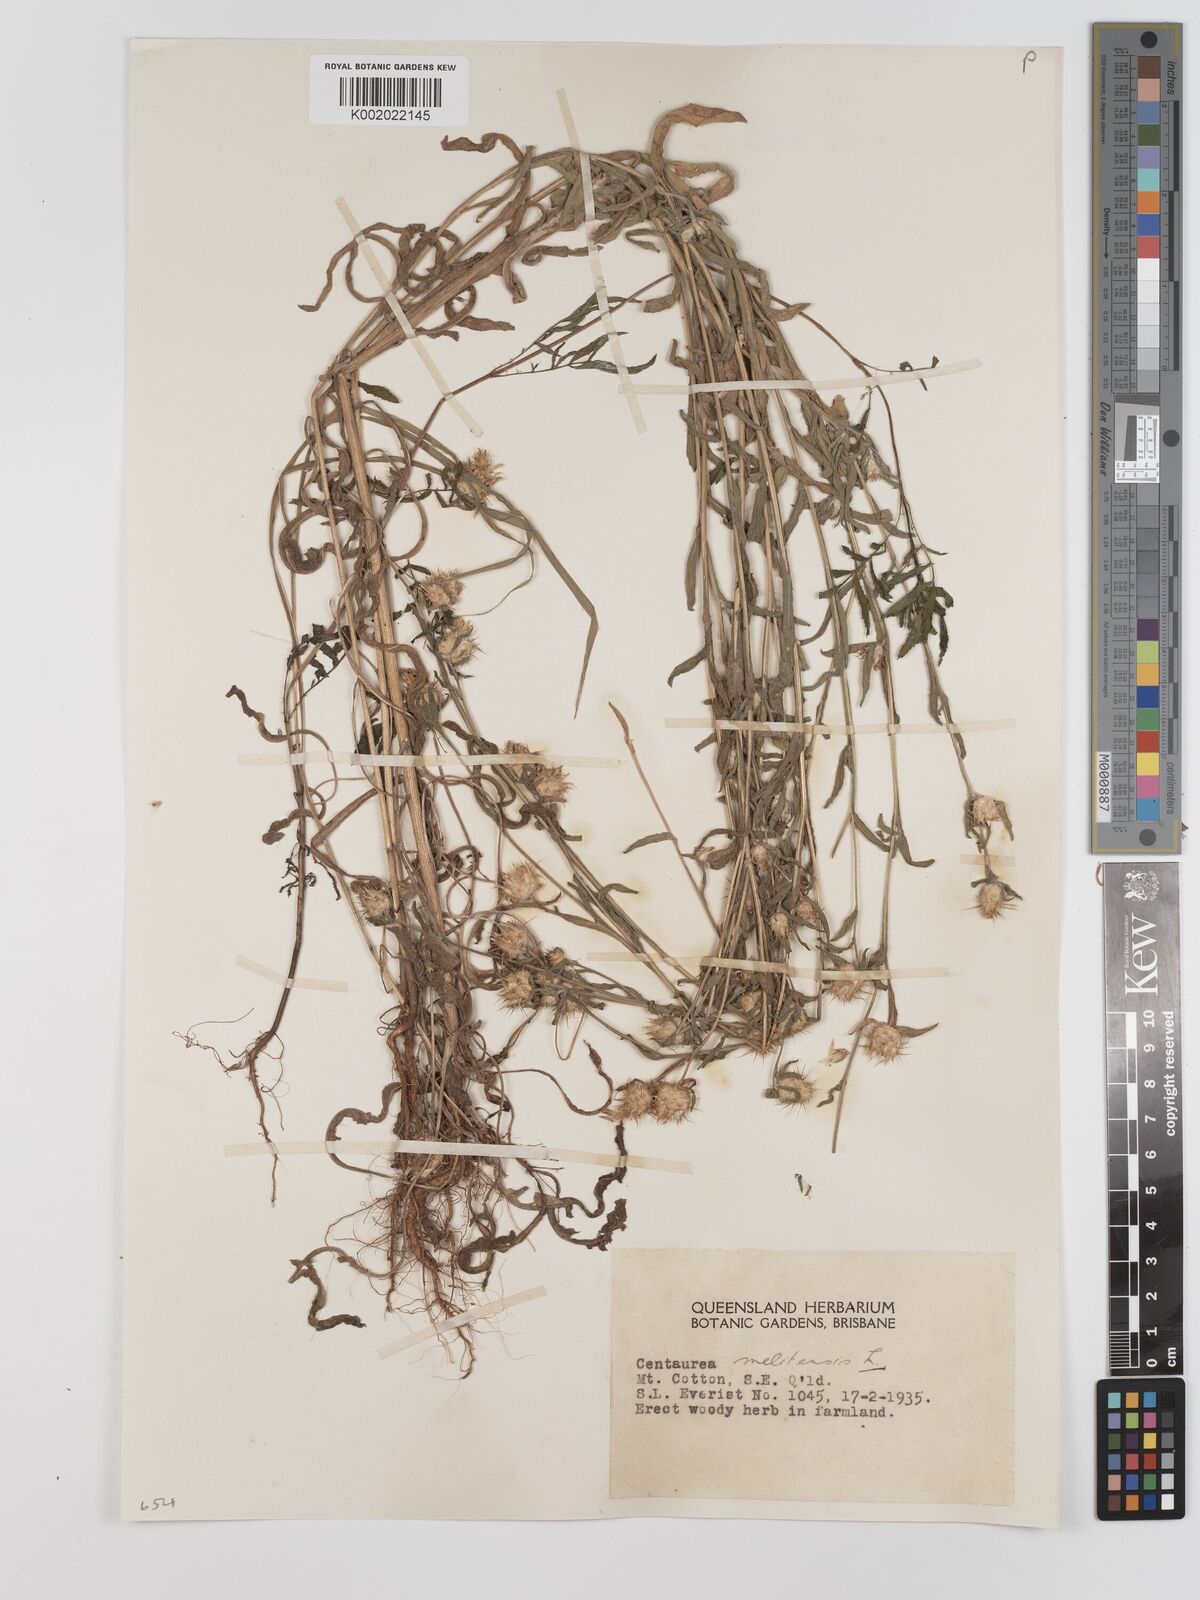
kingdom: Plantae
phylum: Tracheophyta
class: Magnoliopsida
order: Asterales
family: Asteraceae
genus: Centaurea
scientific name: Centaurea melitensis
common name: Maltese star-thistle
